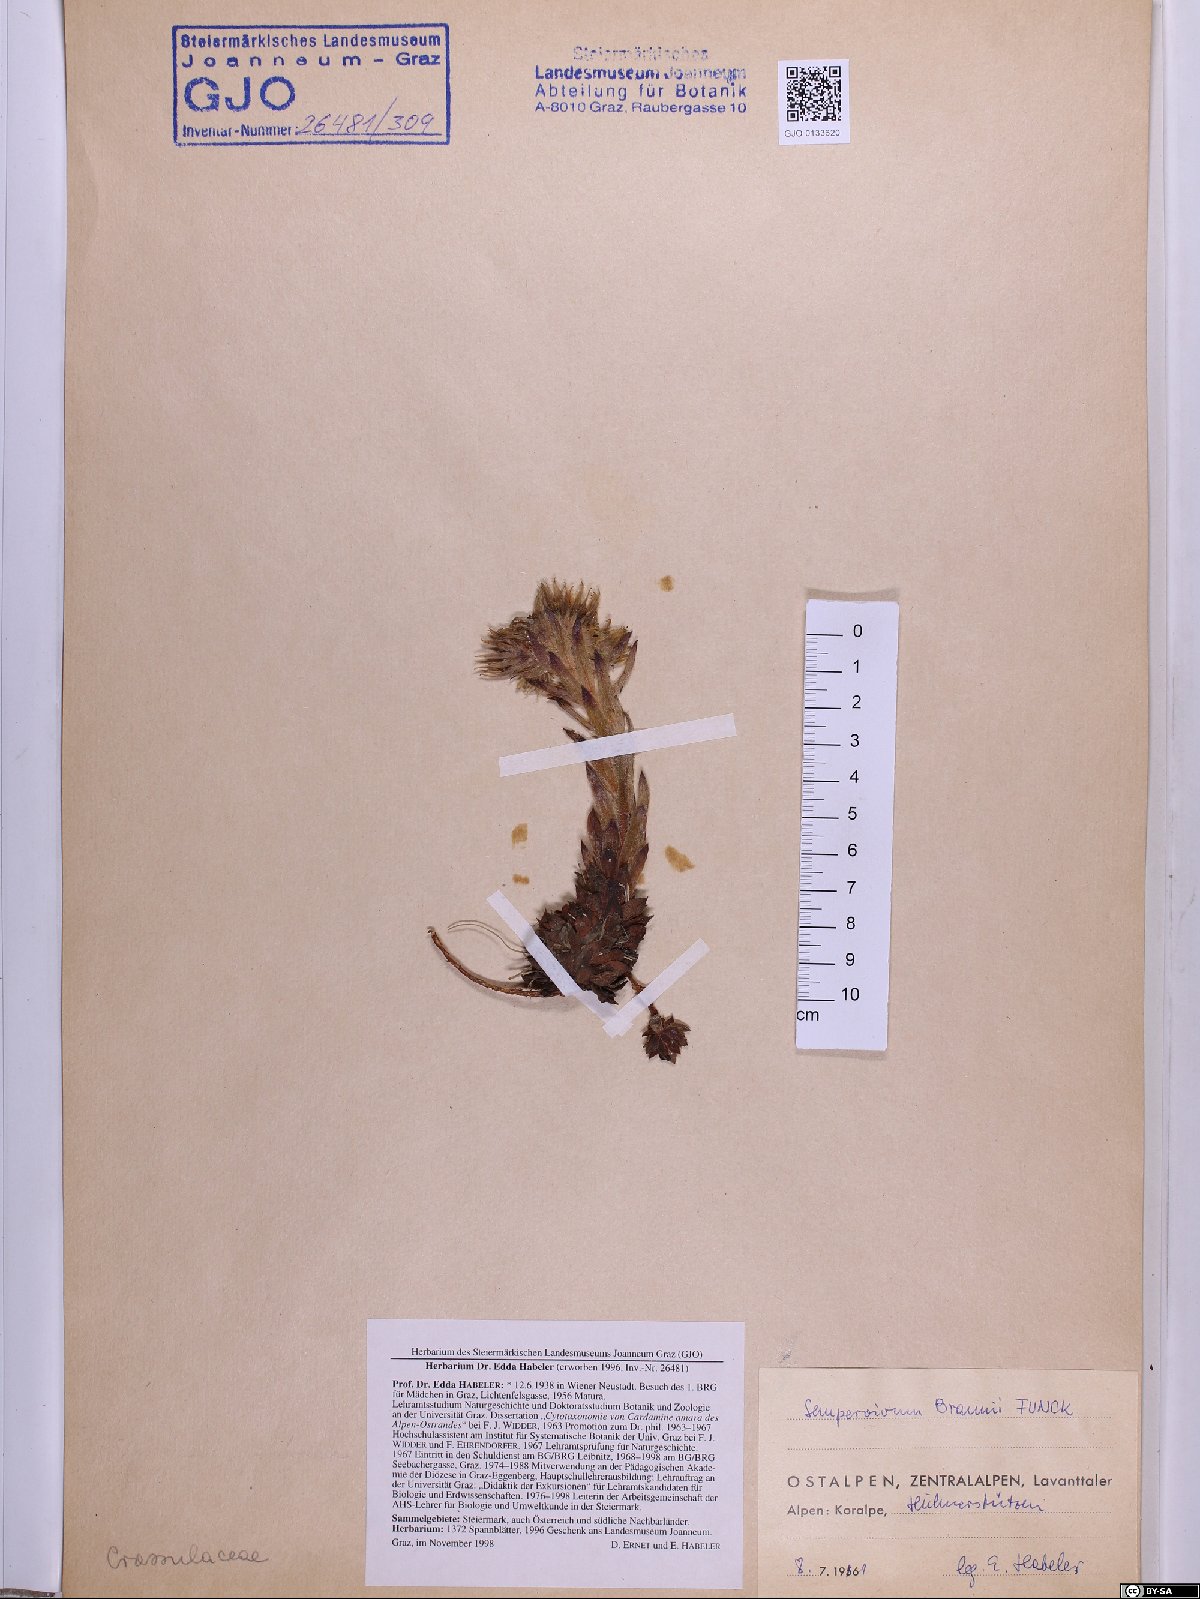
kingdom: Plantae
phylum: Tracheophyta
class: Magnoliopsida
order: Saxifragales
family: Crassulaceae
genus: Sempervivum
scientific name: Sempervivum montanum
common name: Mountain house-leek
